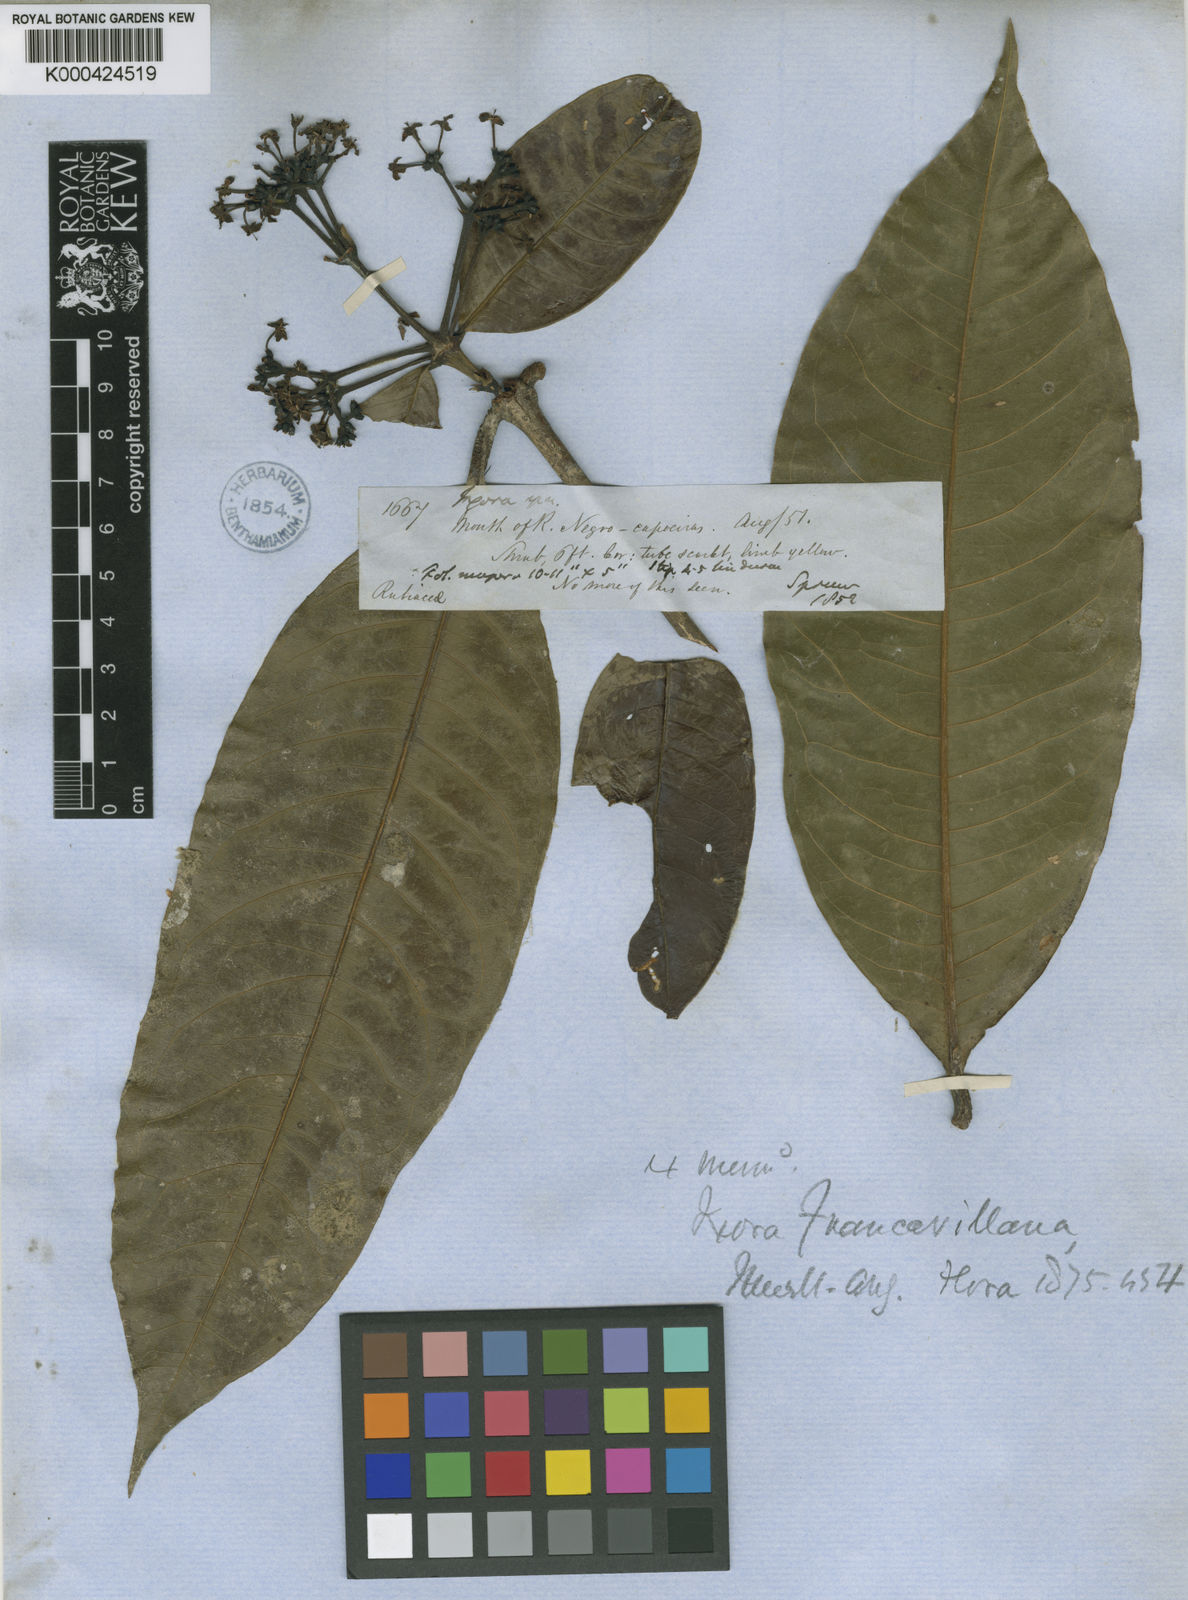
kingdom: Plantae
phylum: Tracheophyta
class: Magnoliopsida
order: Gentianales
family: Rubiaceae
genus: Ixora
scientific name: Ixora
